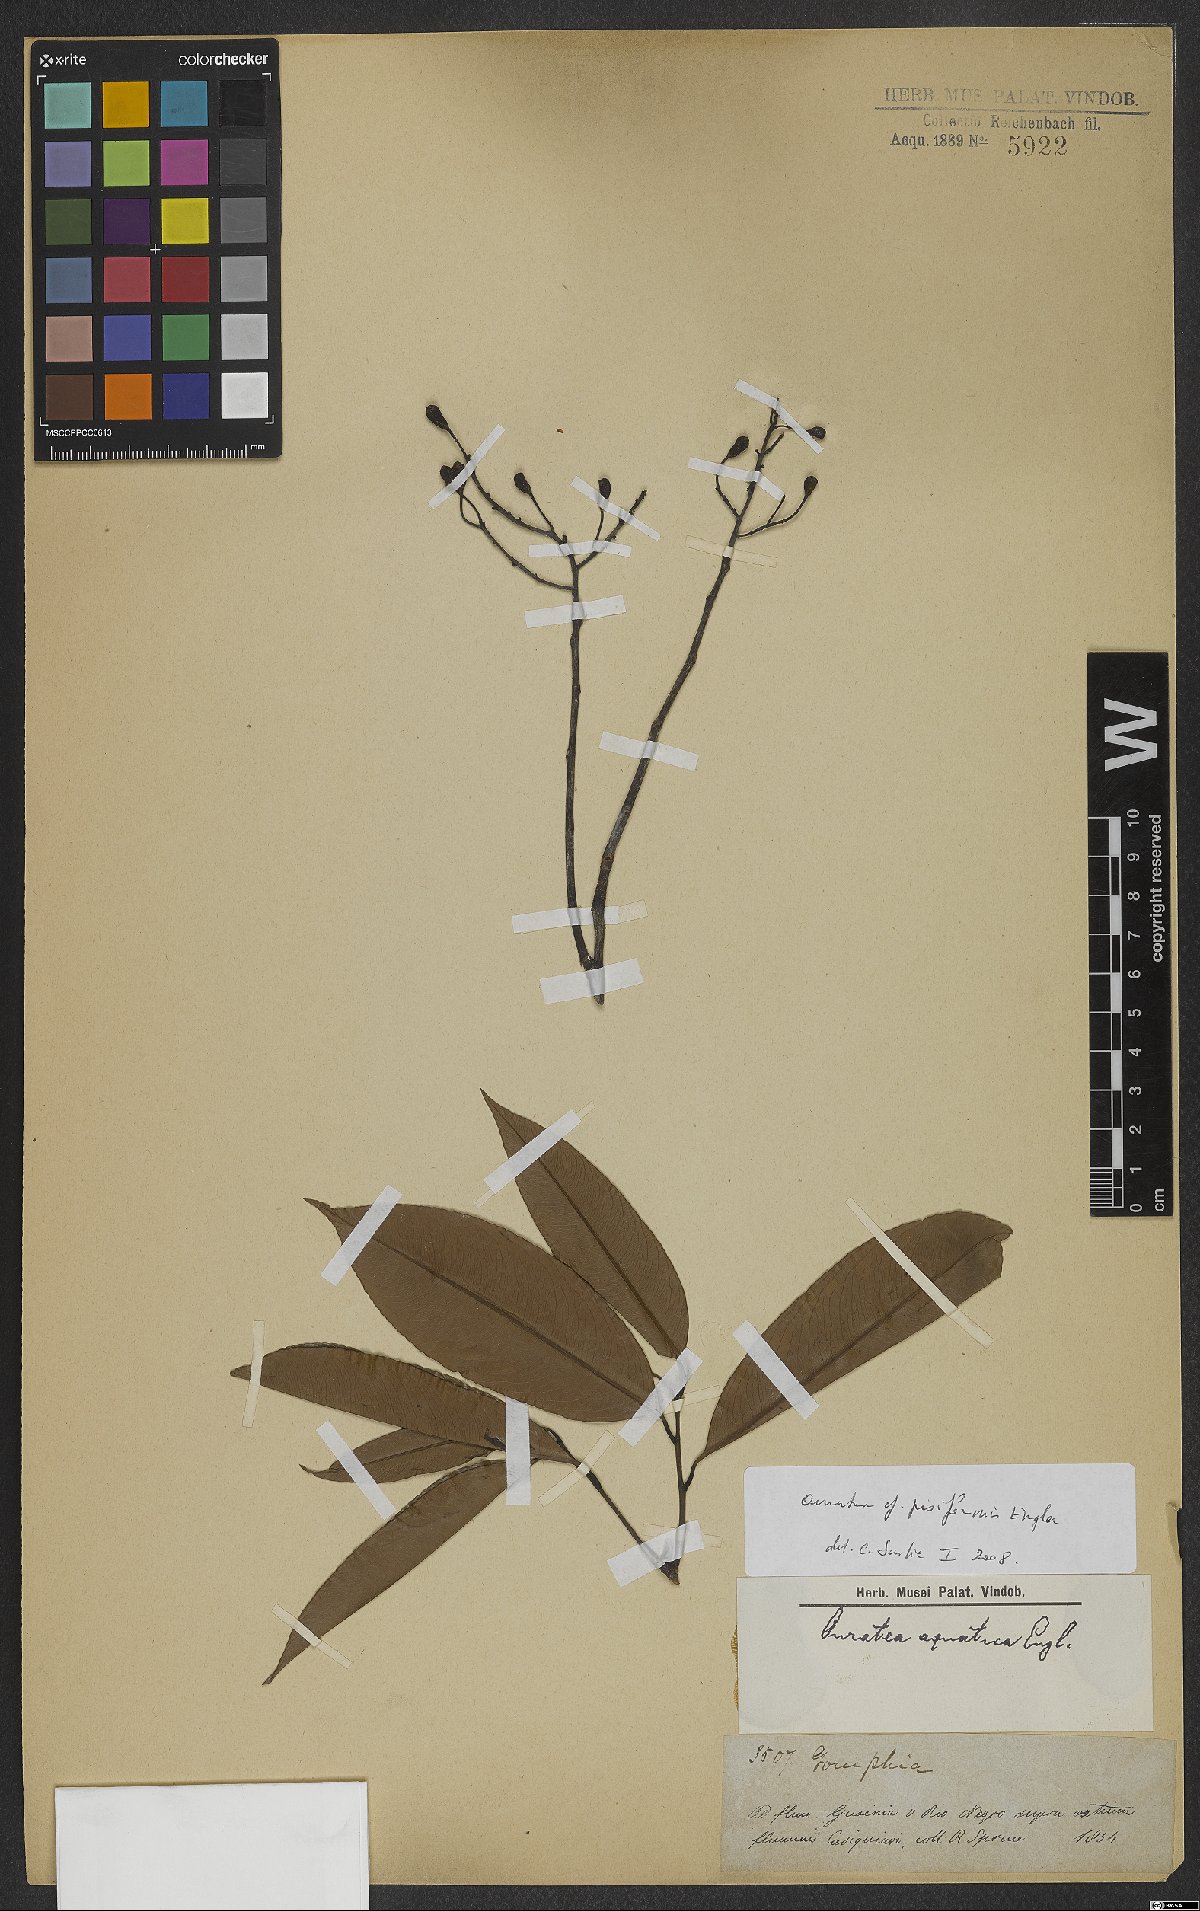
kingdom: Plantae
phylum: Tracheophyta
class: Magnoliopsida
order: Malpighiales
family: Ochnaceae
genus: Ouratea
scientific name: Ouratea pisiformis
